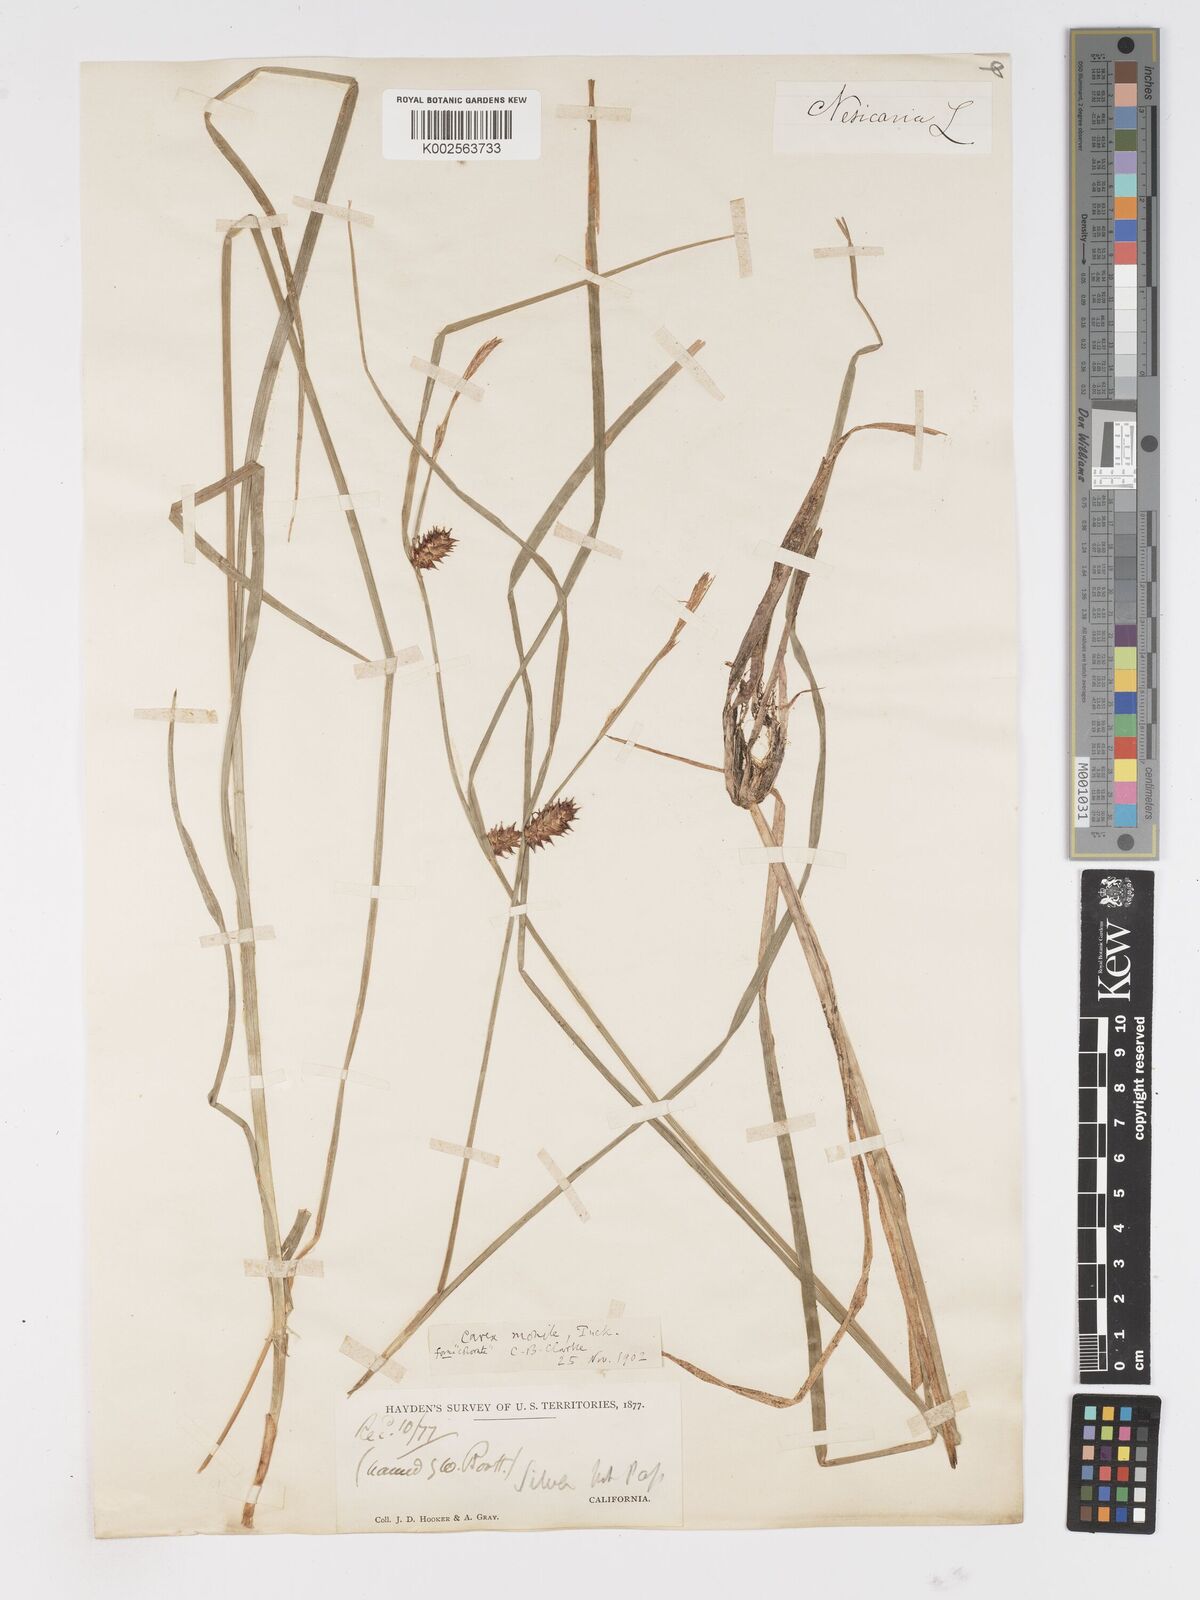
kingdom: Plantae
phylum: Tracheophyta
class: Liliopsida
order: Poales
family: Cyperaceae
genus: Carex
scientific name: Carex vesicaria
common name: Bladder-sedge
